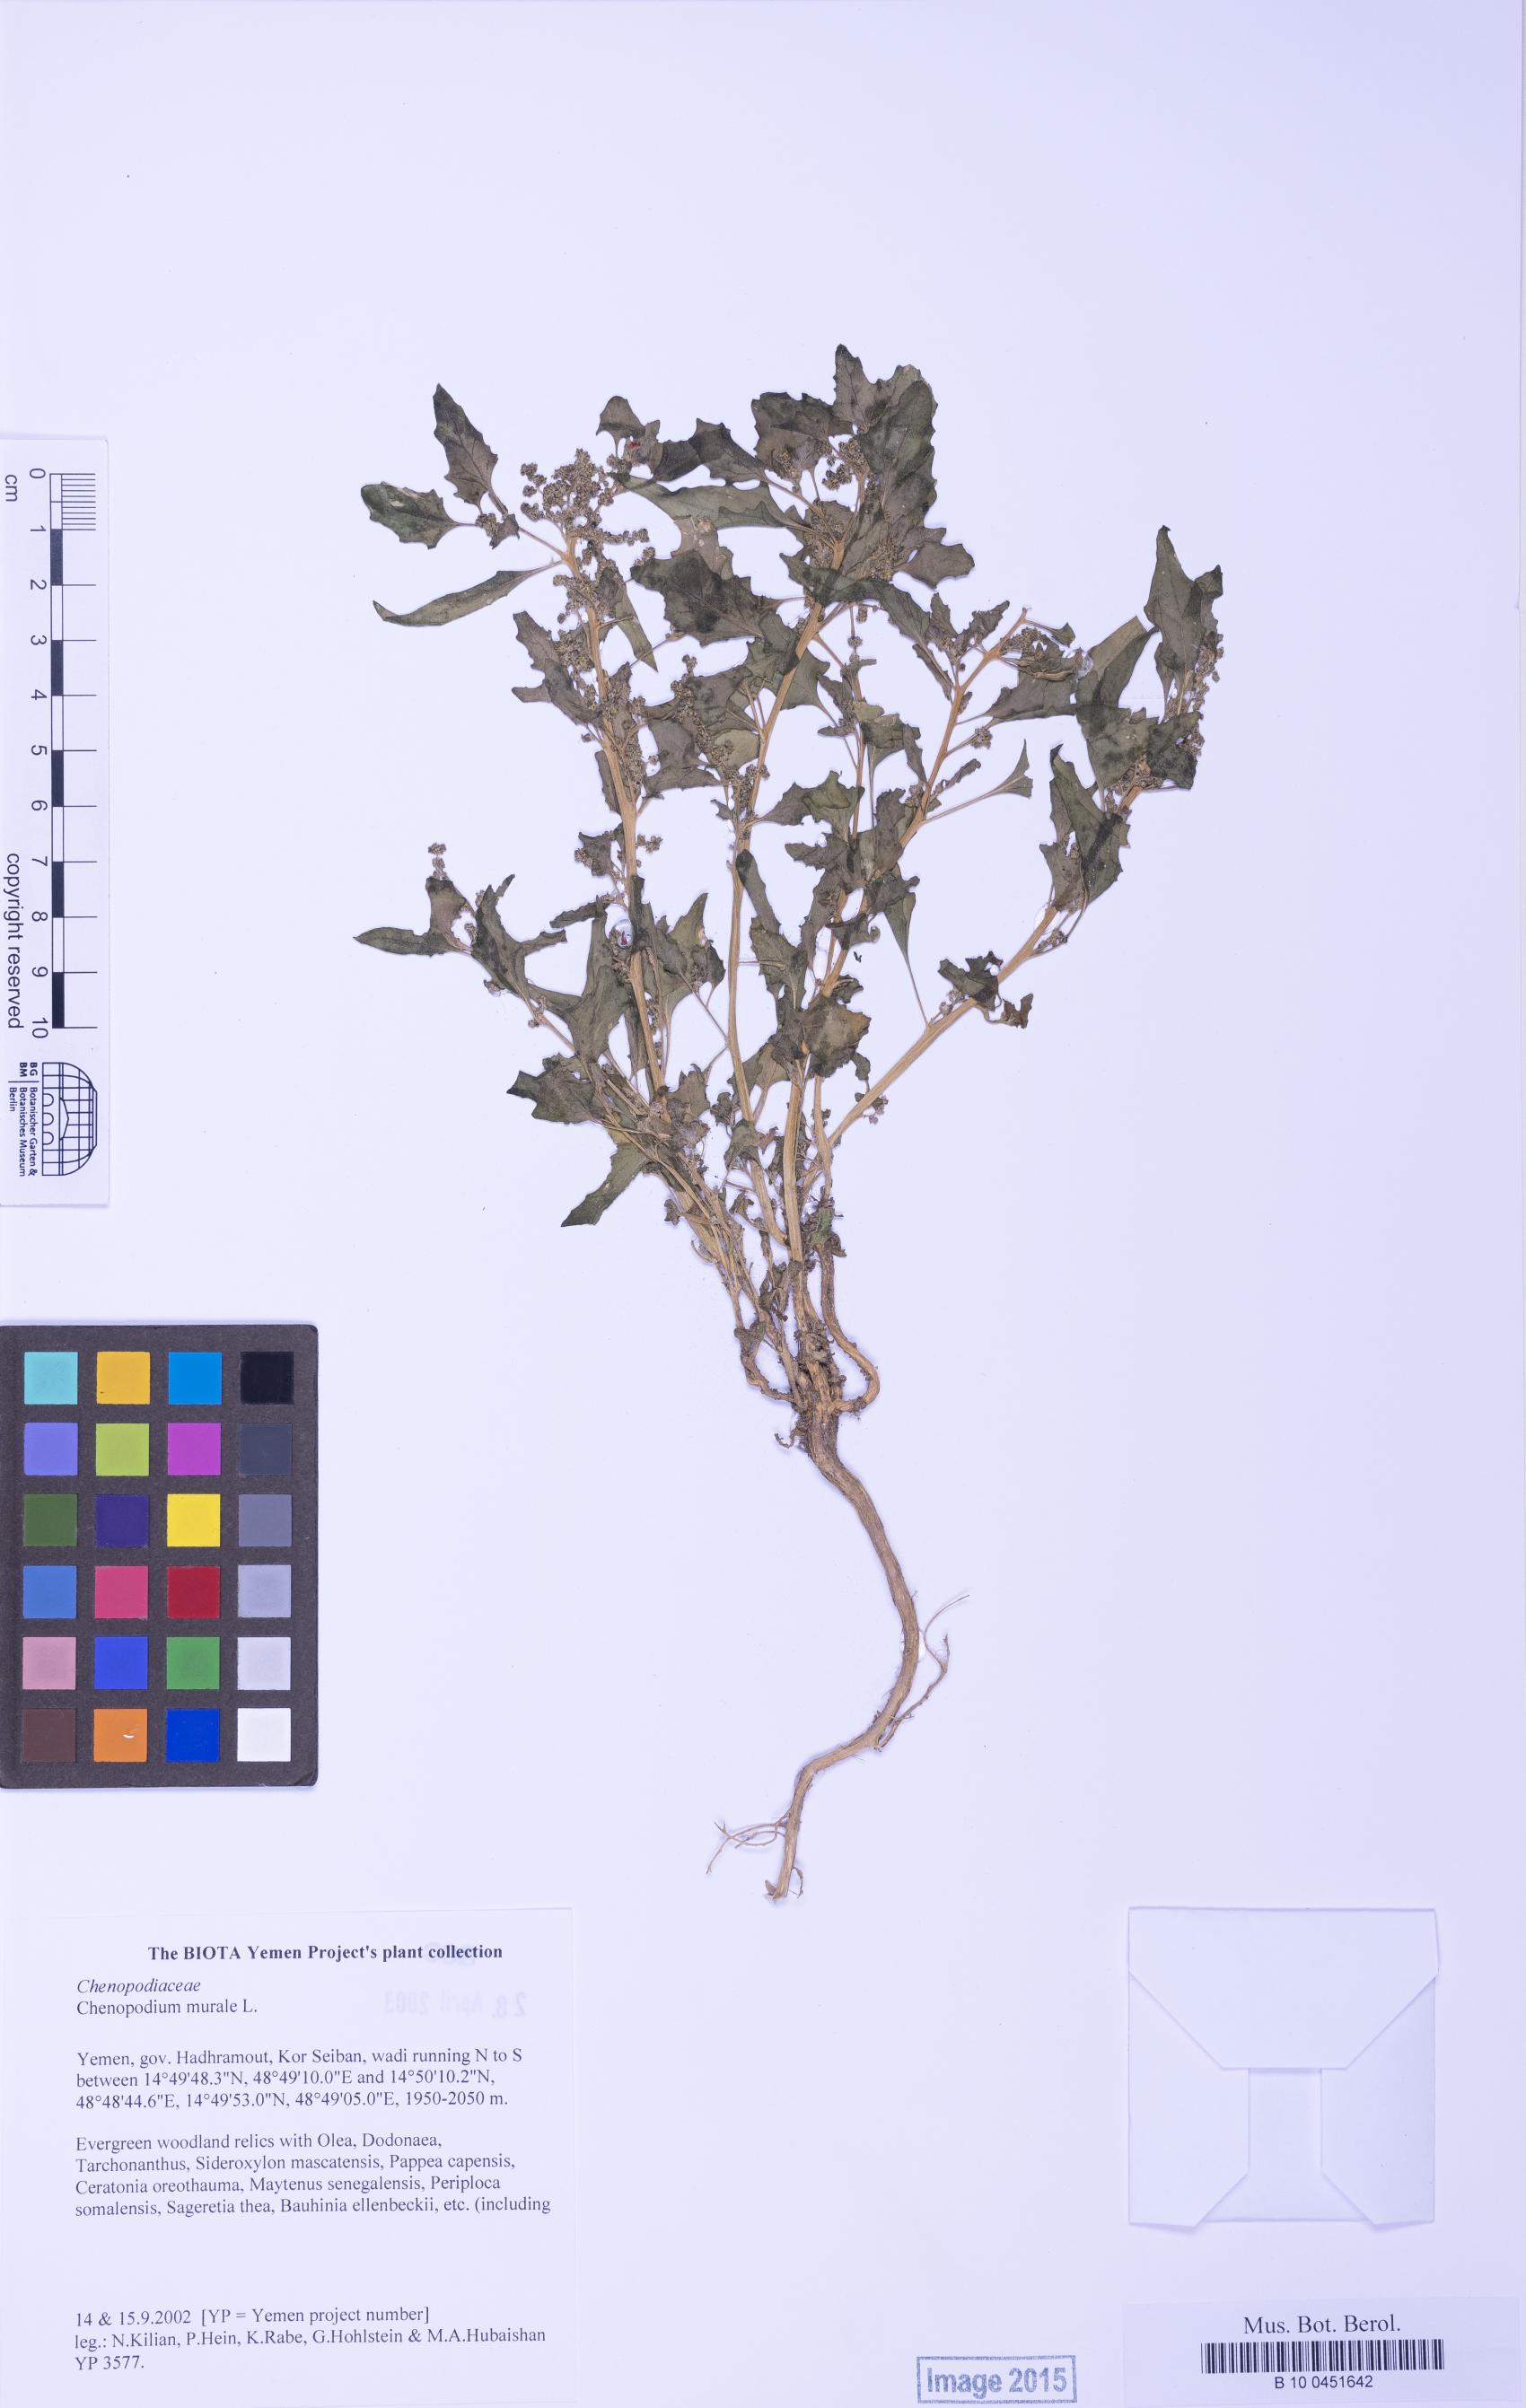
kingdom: Plantae
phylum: Tracheophyta
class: Magnoliopsida
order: Caryophyllales
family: Amaranthaceae
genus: Chenopodiastrum
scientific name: Chenopodiastrum murale
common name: Sowbane
